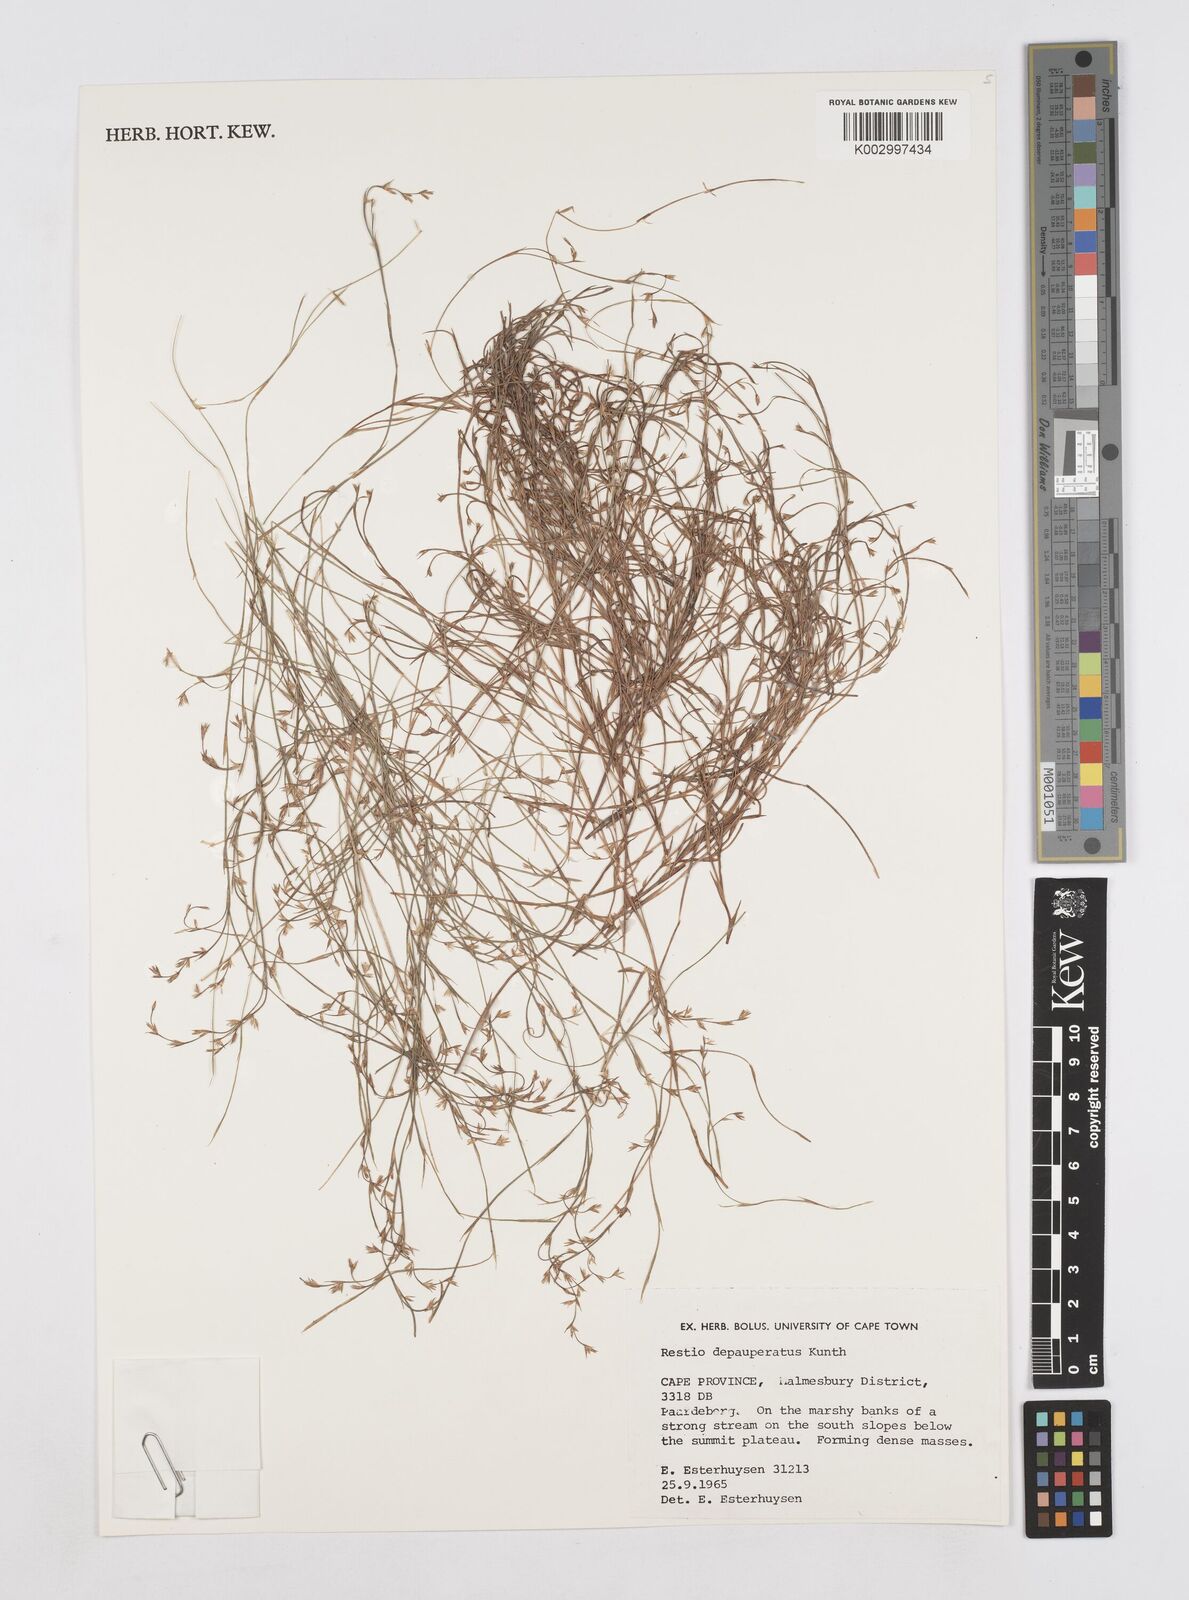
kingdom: Plantae
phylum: Tracheophyta
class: Liliopsida
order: Poales
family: Restionaceae
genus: Platycaulos
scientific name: Platycaulos depauperatus
